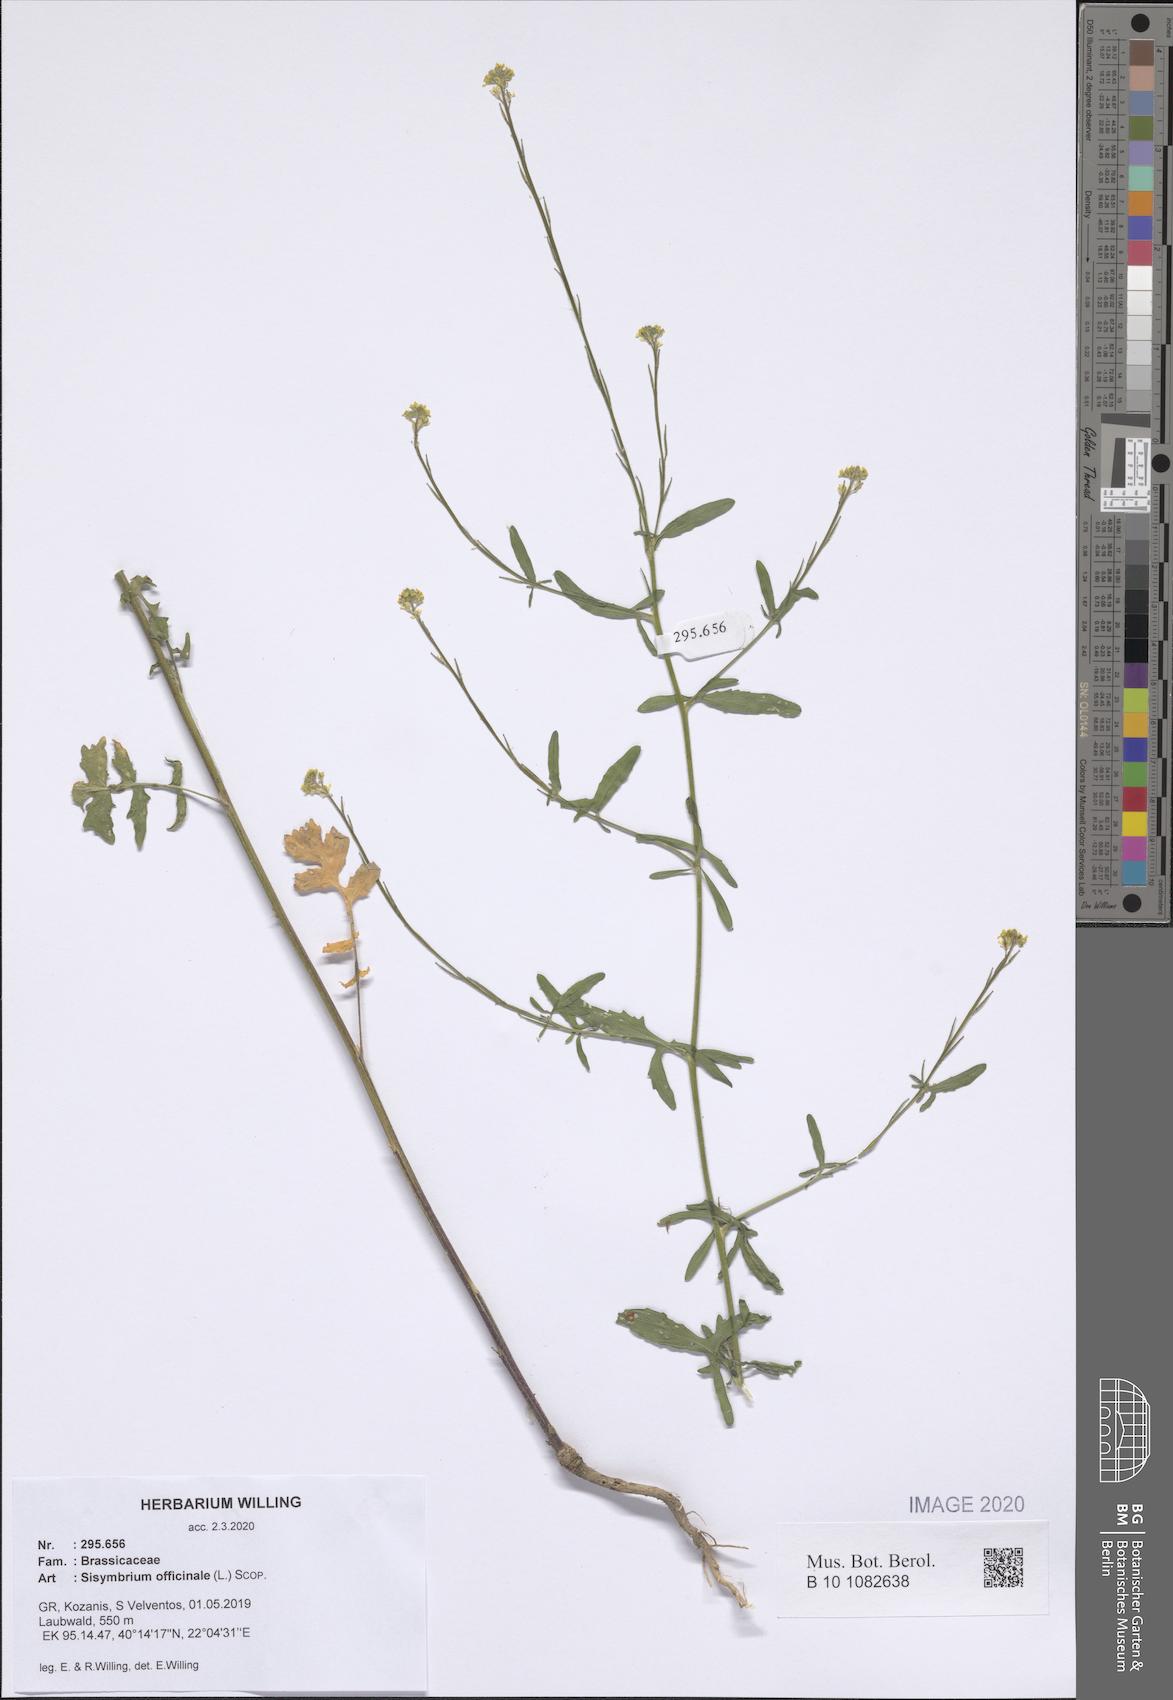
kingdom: Plantae
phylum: Tracheophyta
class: Magnoliopsida
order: Brassicales
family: Brassicaceae
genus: Sisymbrium
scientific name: Sisymbrium officinale
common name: Hedge mustard
